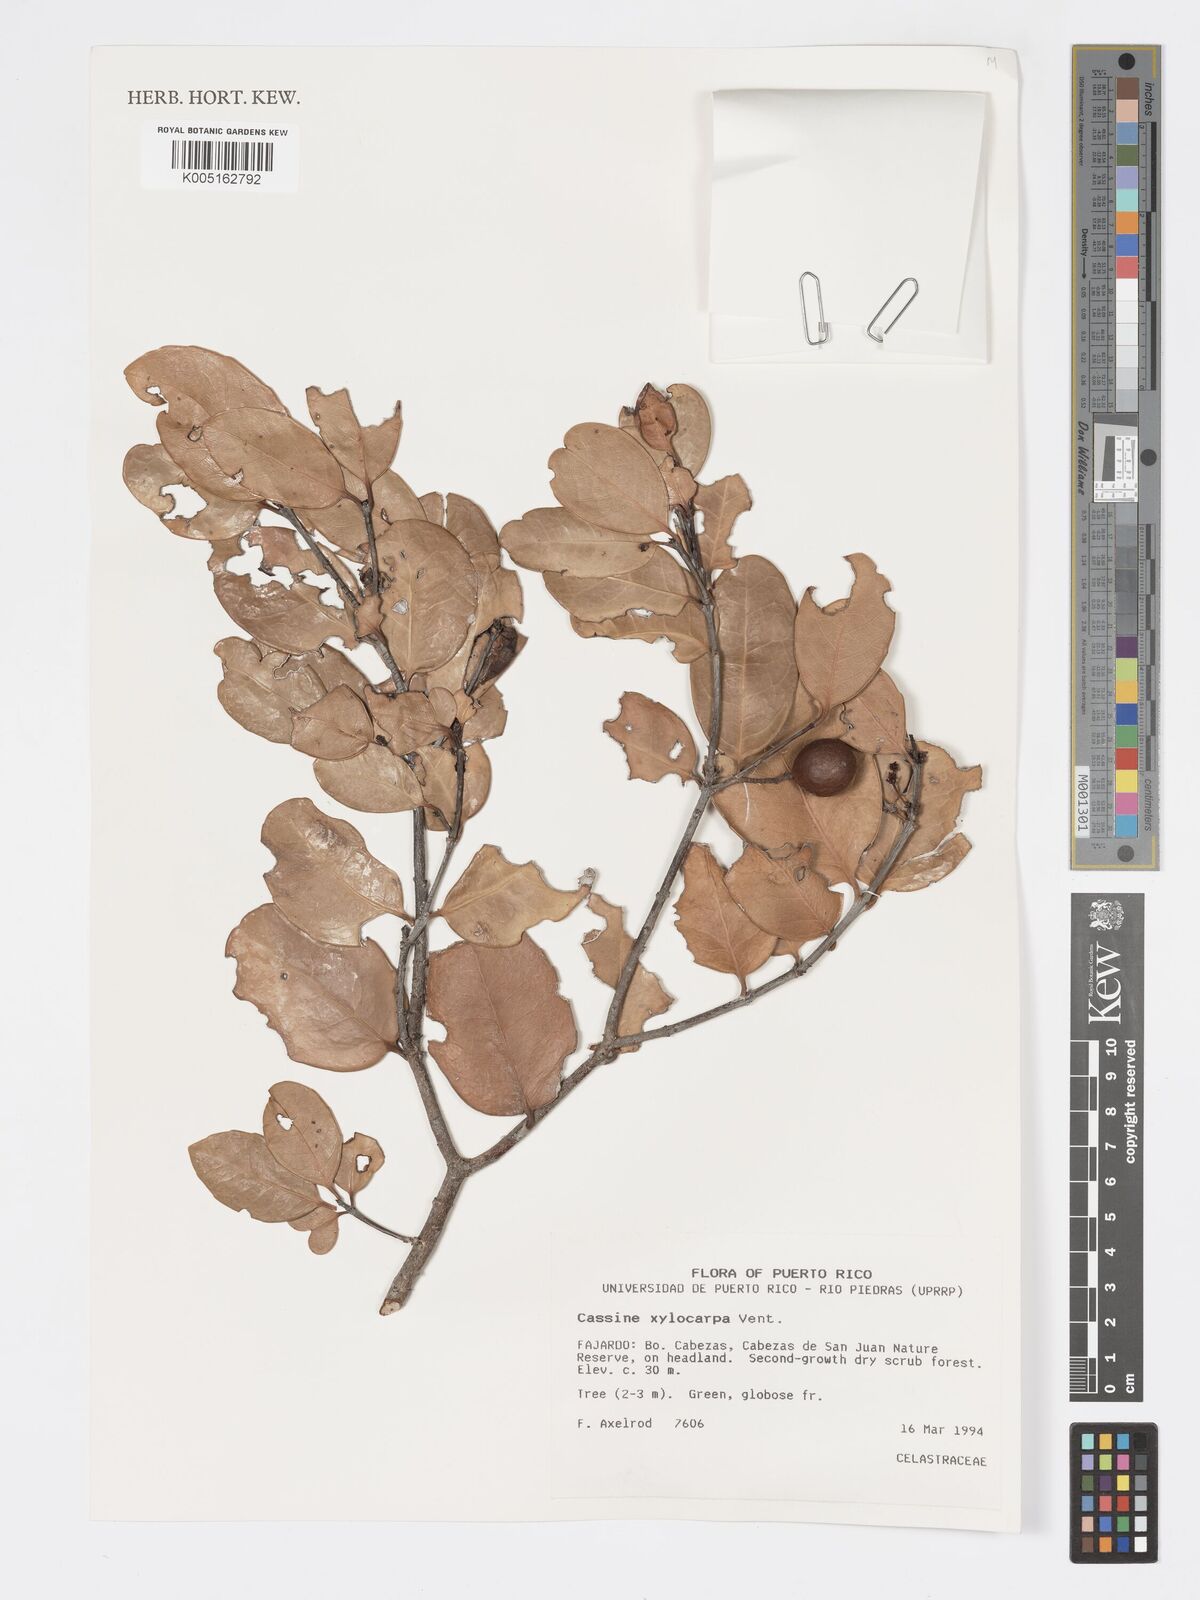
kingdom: Plantae
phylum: Tracheophyta
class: Magnoliopsida
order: Celastrales
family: Celastraceae
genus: Elaeodendron
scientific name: Elaeodendron xylocarpum
